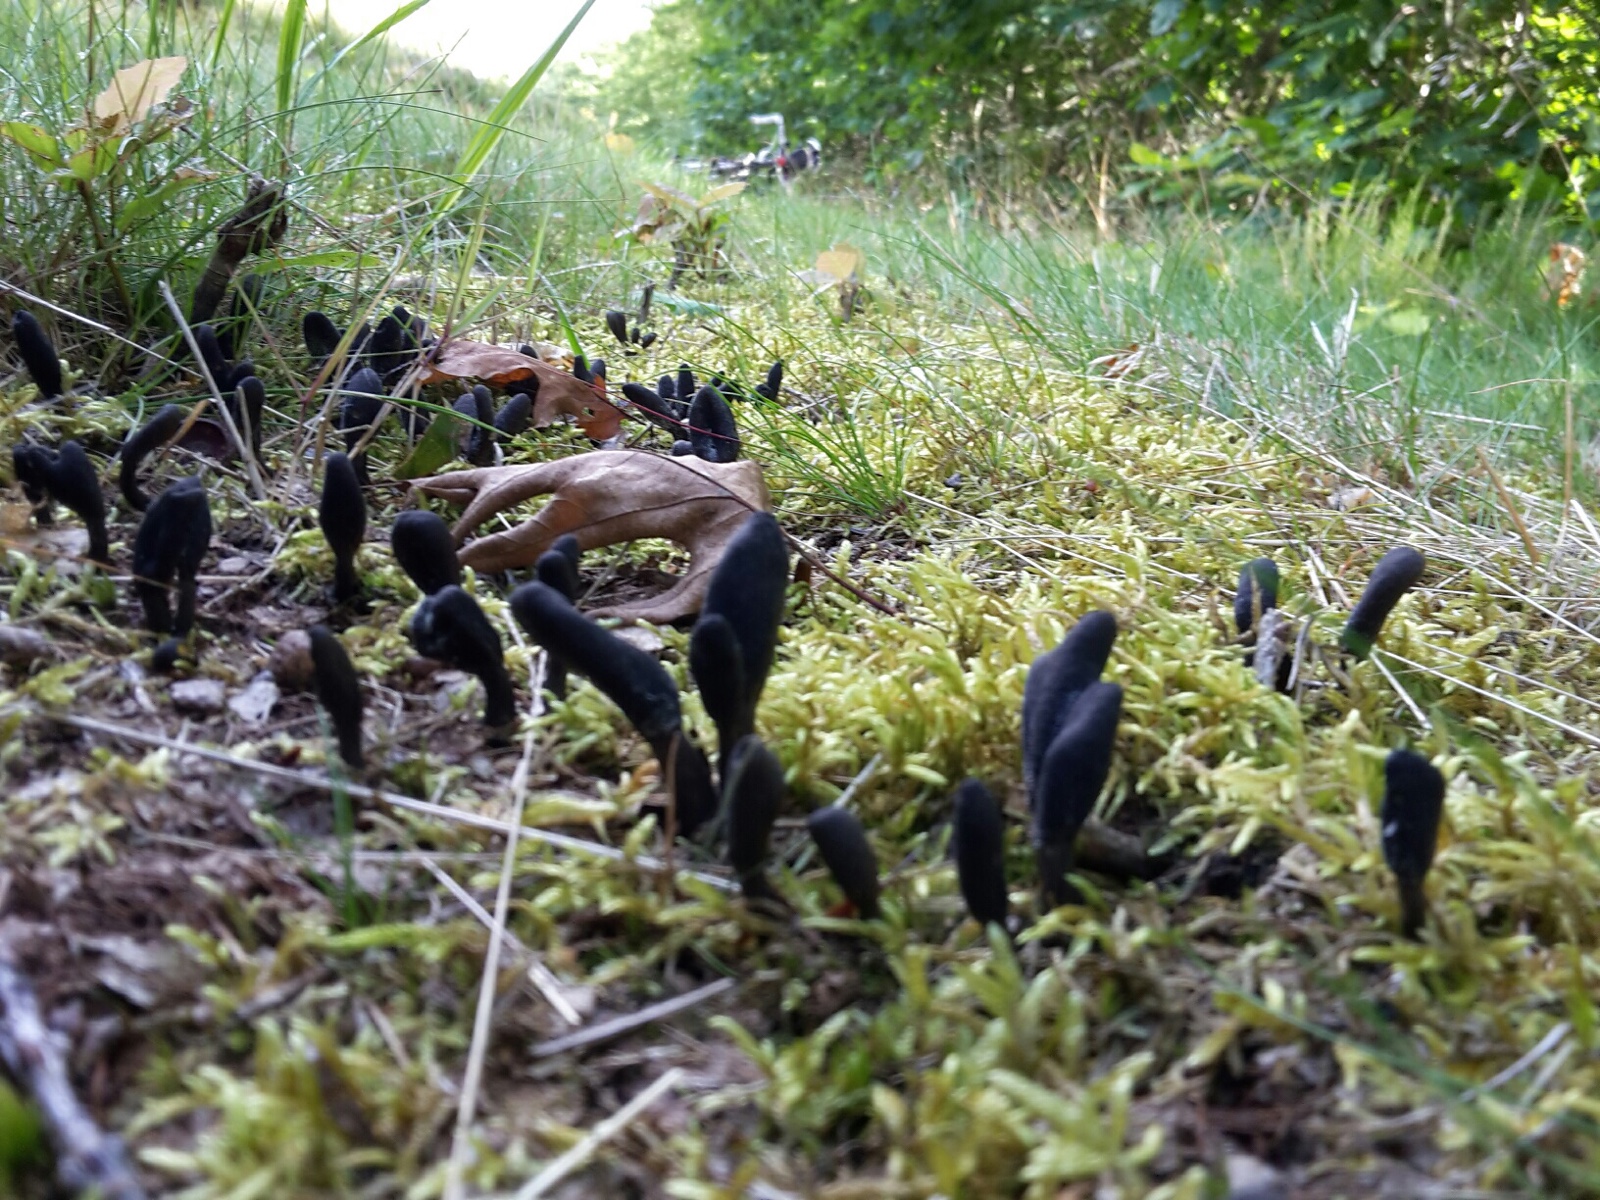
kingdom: Fungi
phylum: Ascomycota
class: Sordariomycetes
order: Hypocreales
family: Ophiocordycipitaceae
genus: Tolypocladium
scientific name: Tolypocladium ophioglossoides
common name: slank snyltekølle
